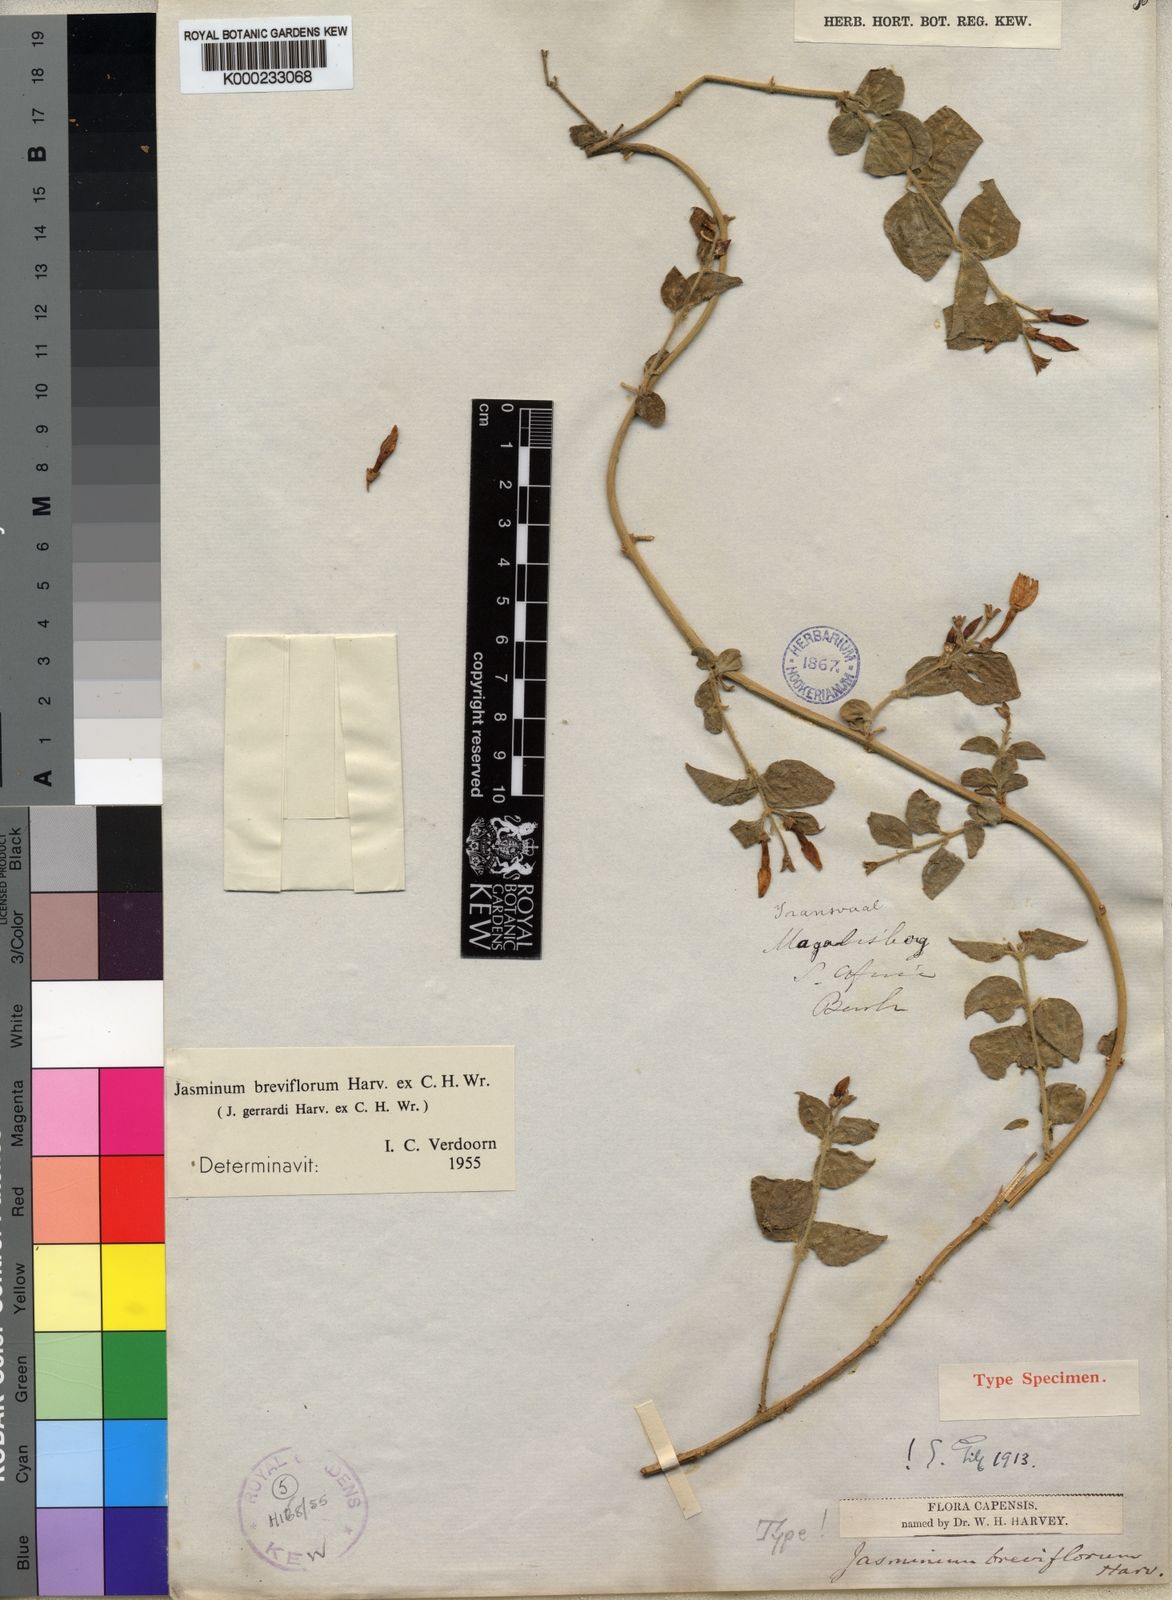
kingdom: Plantae
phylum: Tracheophyta
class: Magnoliopsida
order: Lamiales
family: Oleaceae
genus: Jasminum
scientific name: Jasminum
